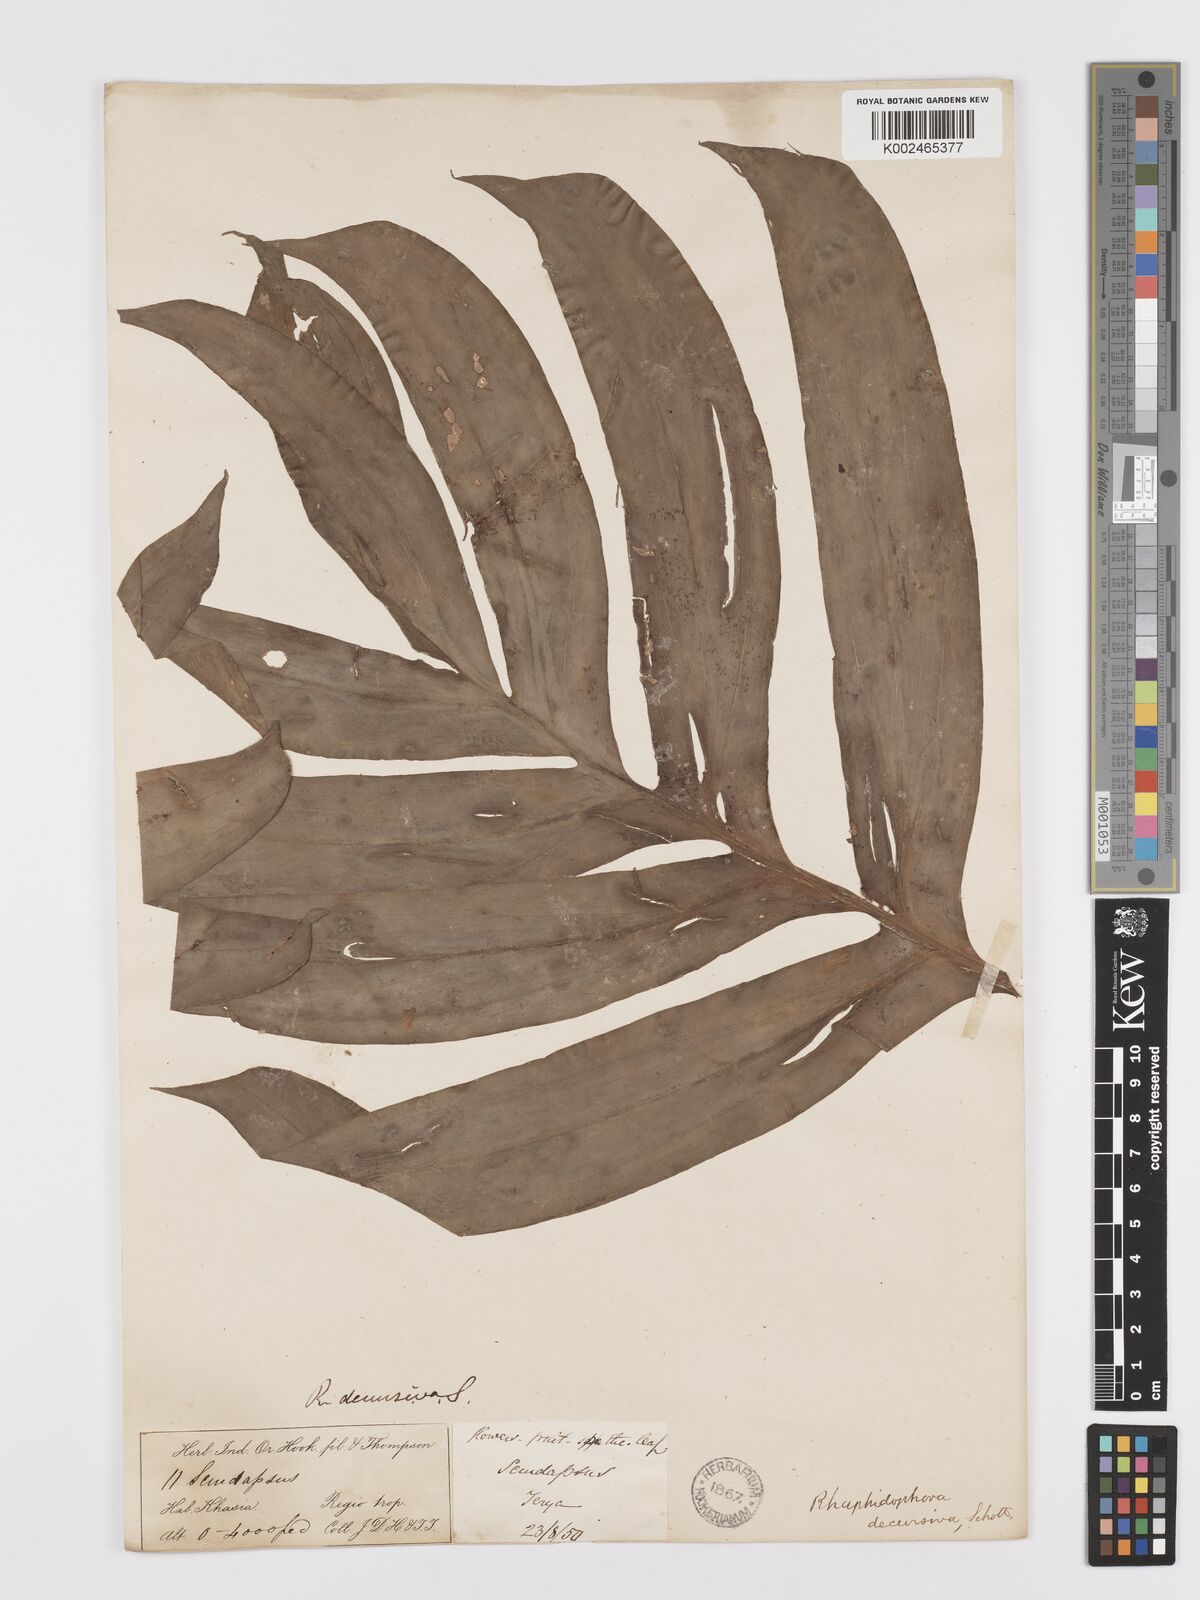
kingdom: Plantae
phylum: Tracheophyta
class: Liliopsida
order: Alismatales
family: Araceae
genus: Rhaphidophora
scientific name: Rhaphidophora decursiva
